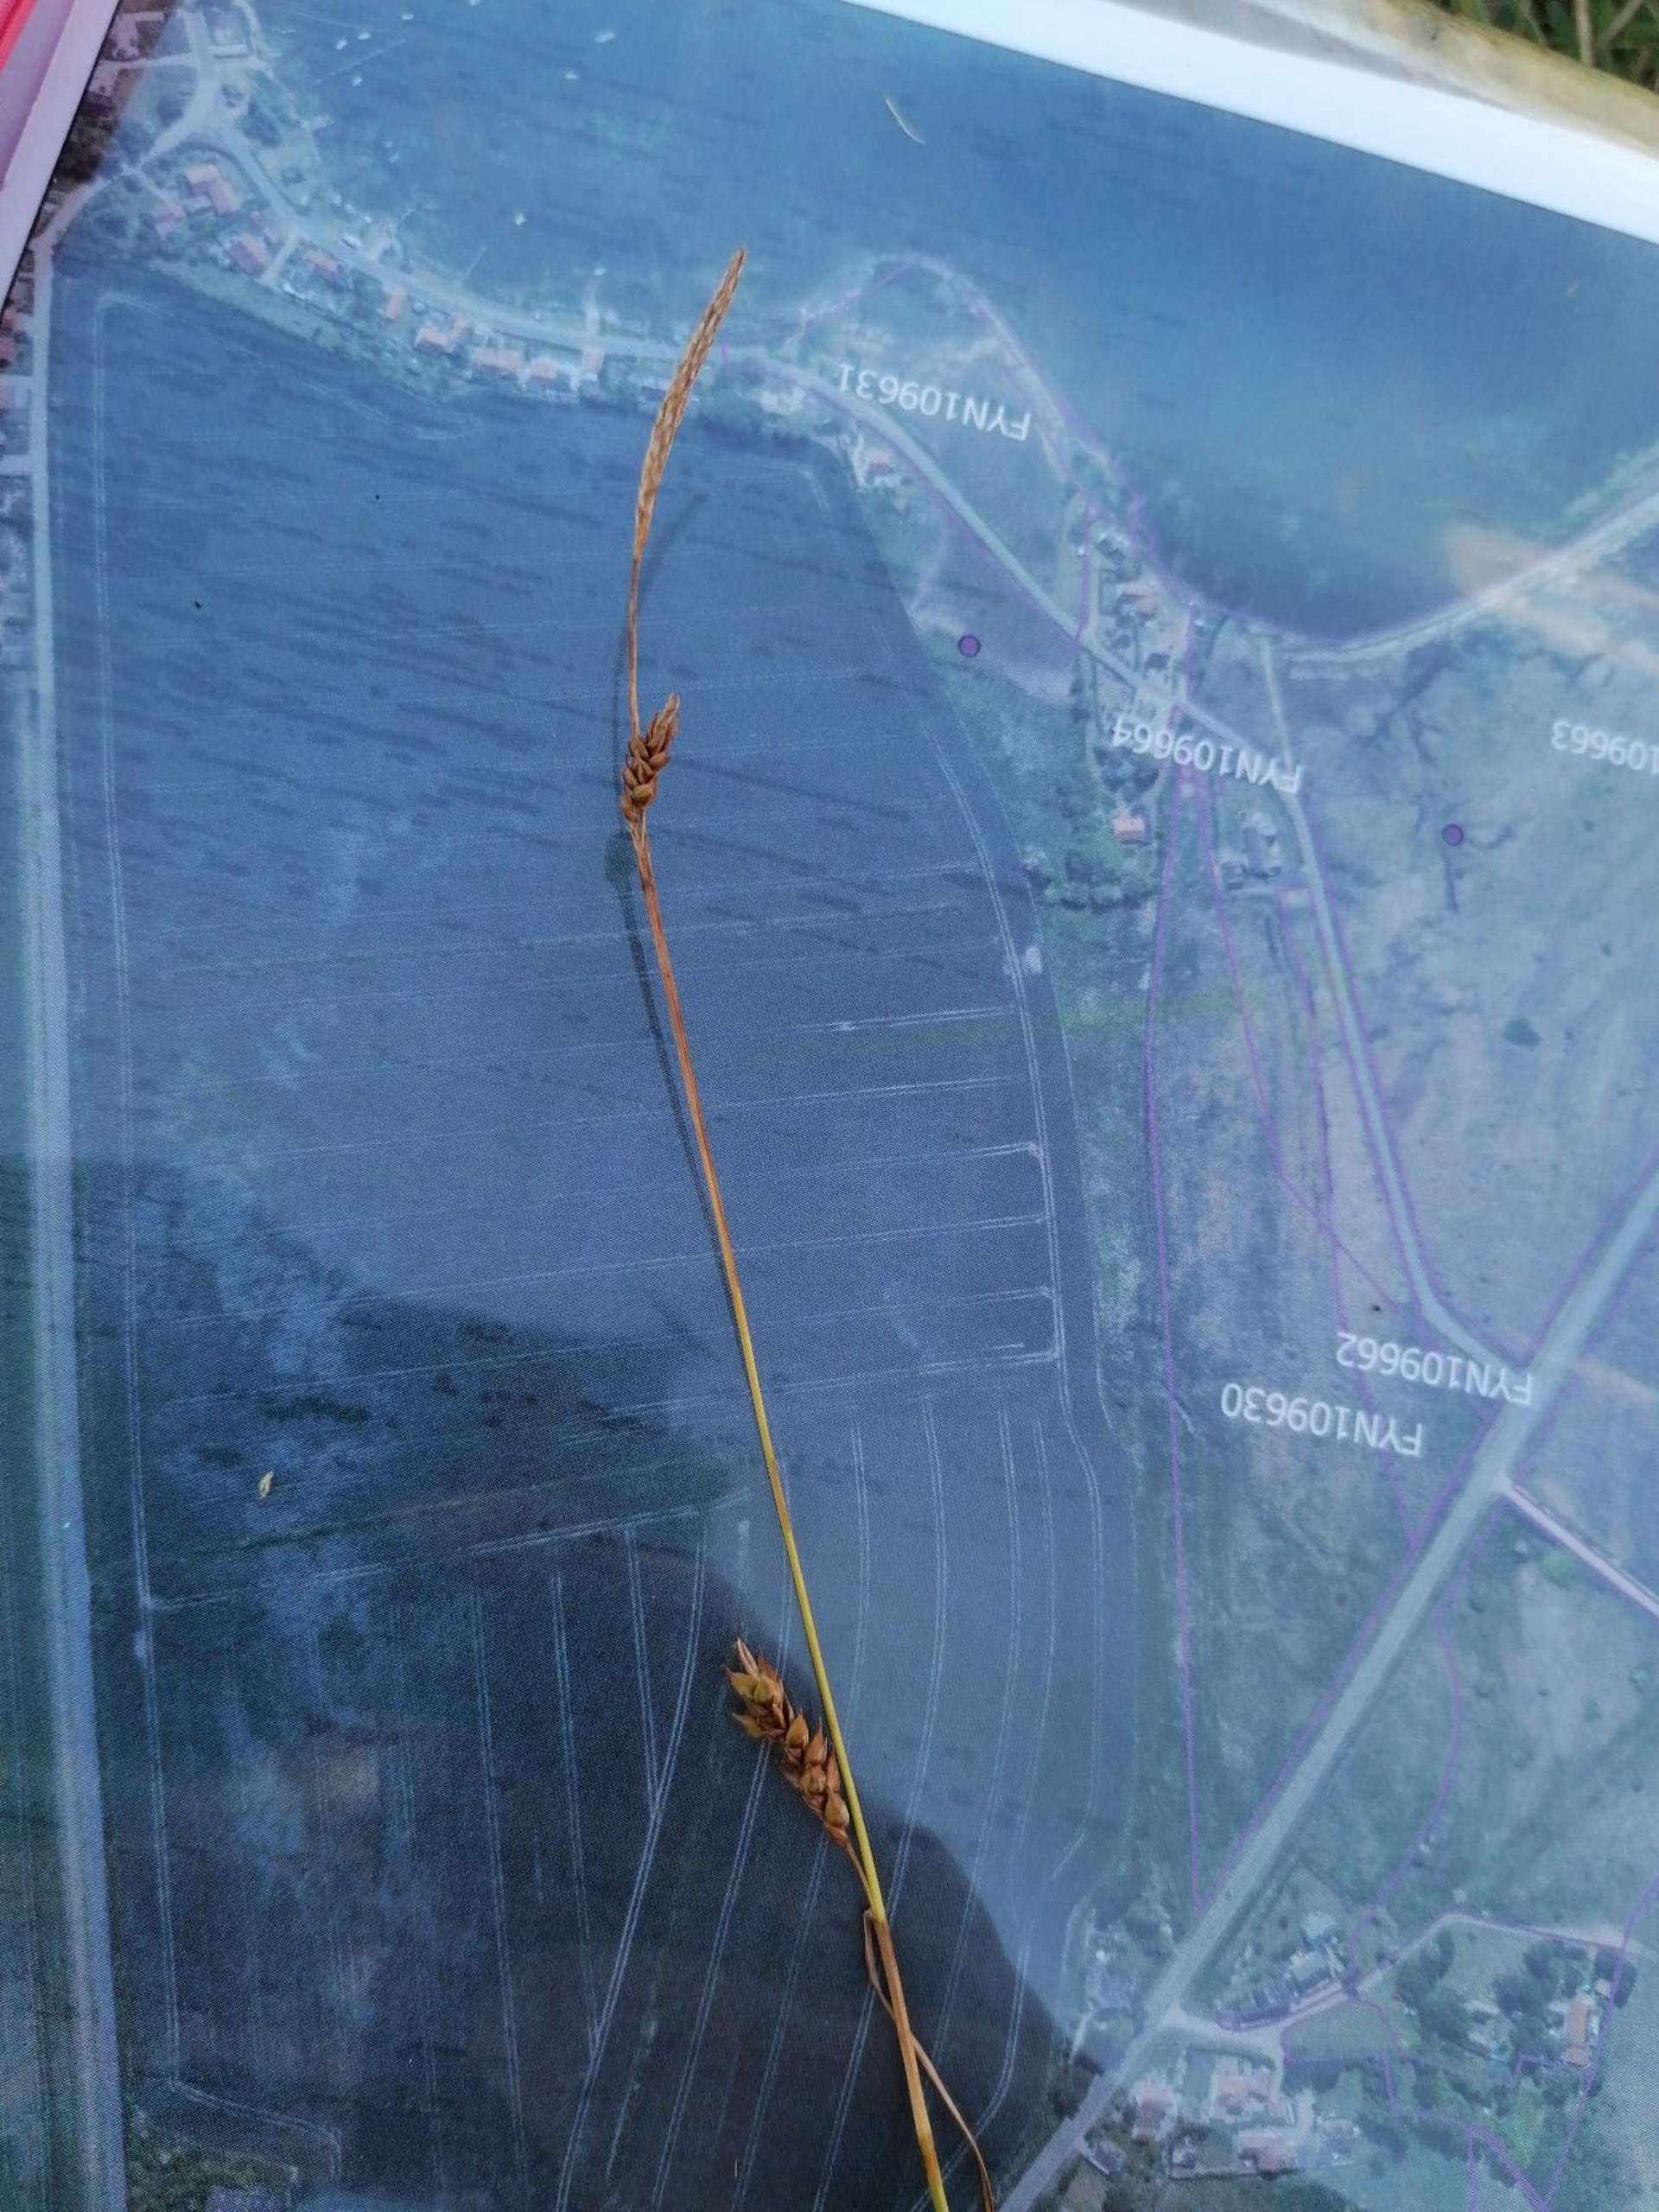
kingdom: Plantae
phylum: Tracheophyta
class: Liliopsida
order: Poales
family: Cyperaceae
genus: Carex
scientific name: Carex distans
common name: Fjernakset star
